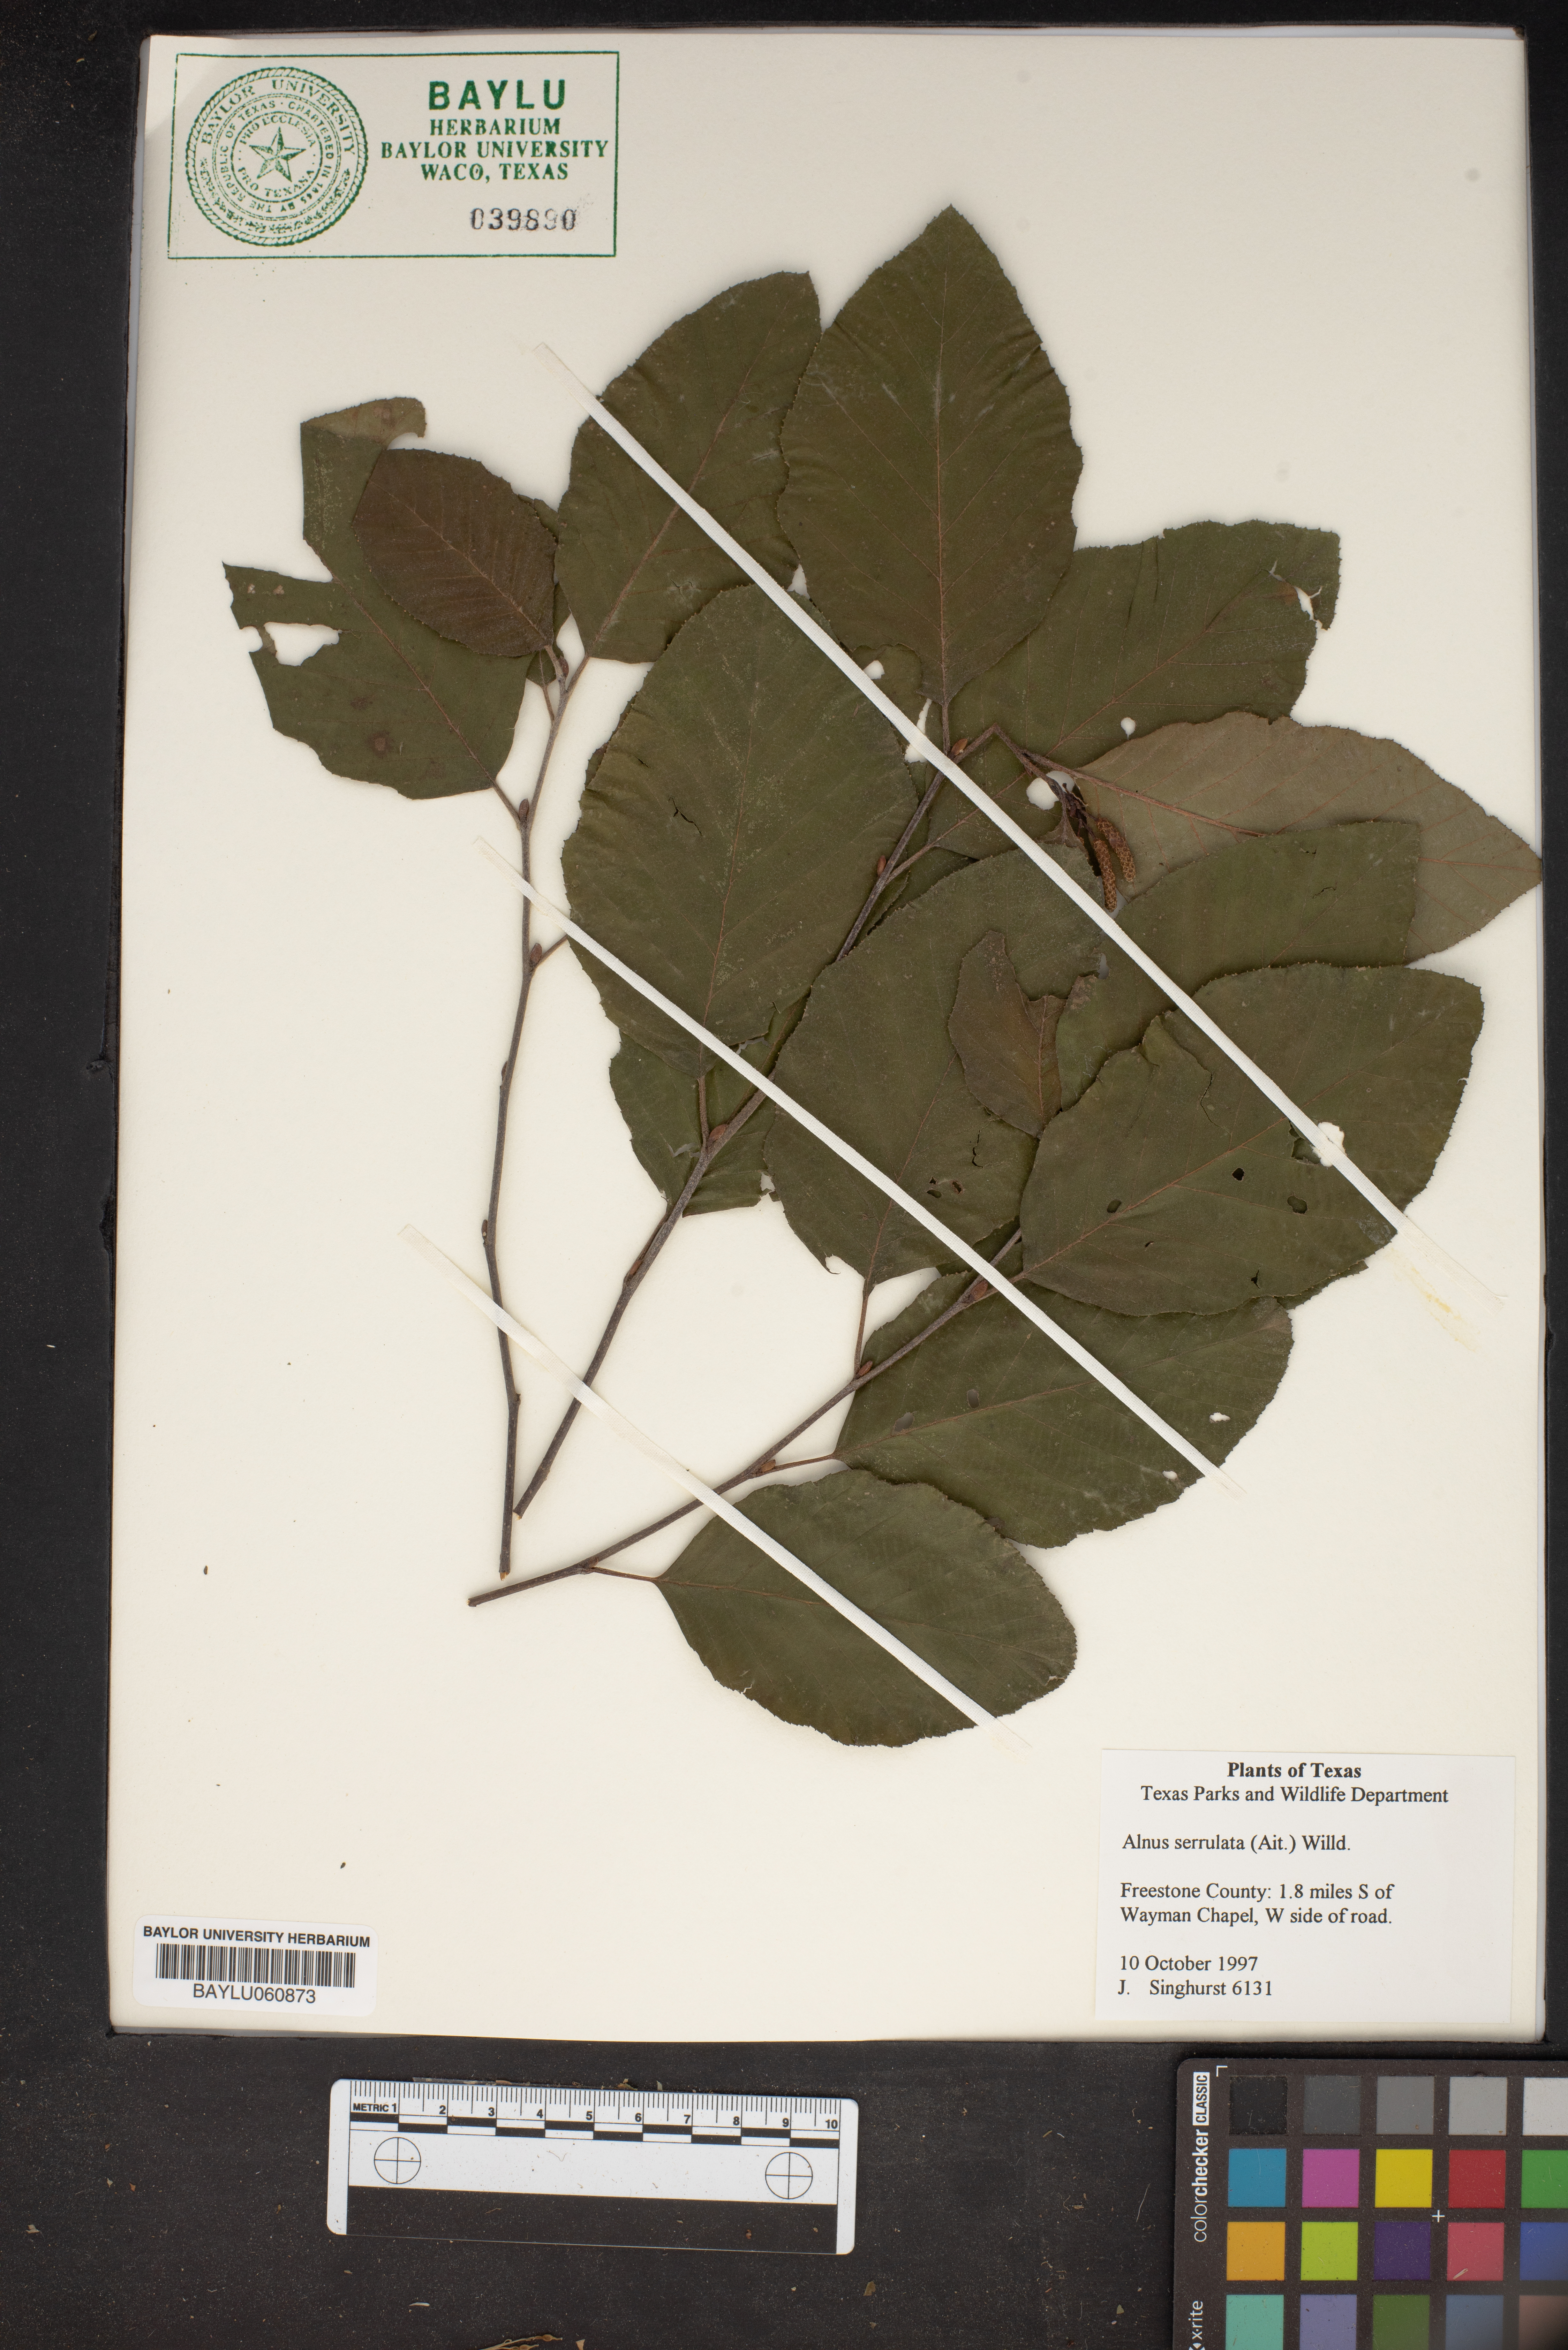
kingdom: Plantae
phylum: Tracheophyta
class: Magnoliopsida
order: Fagales
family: Betulaceae
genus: Alnus
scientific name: Alnus serrulata
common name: Hazel alder
